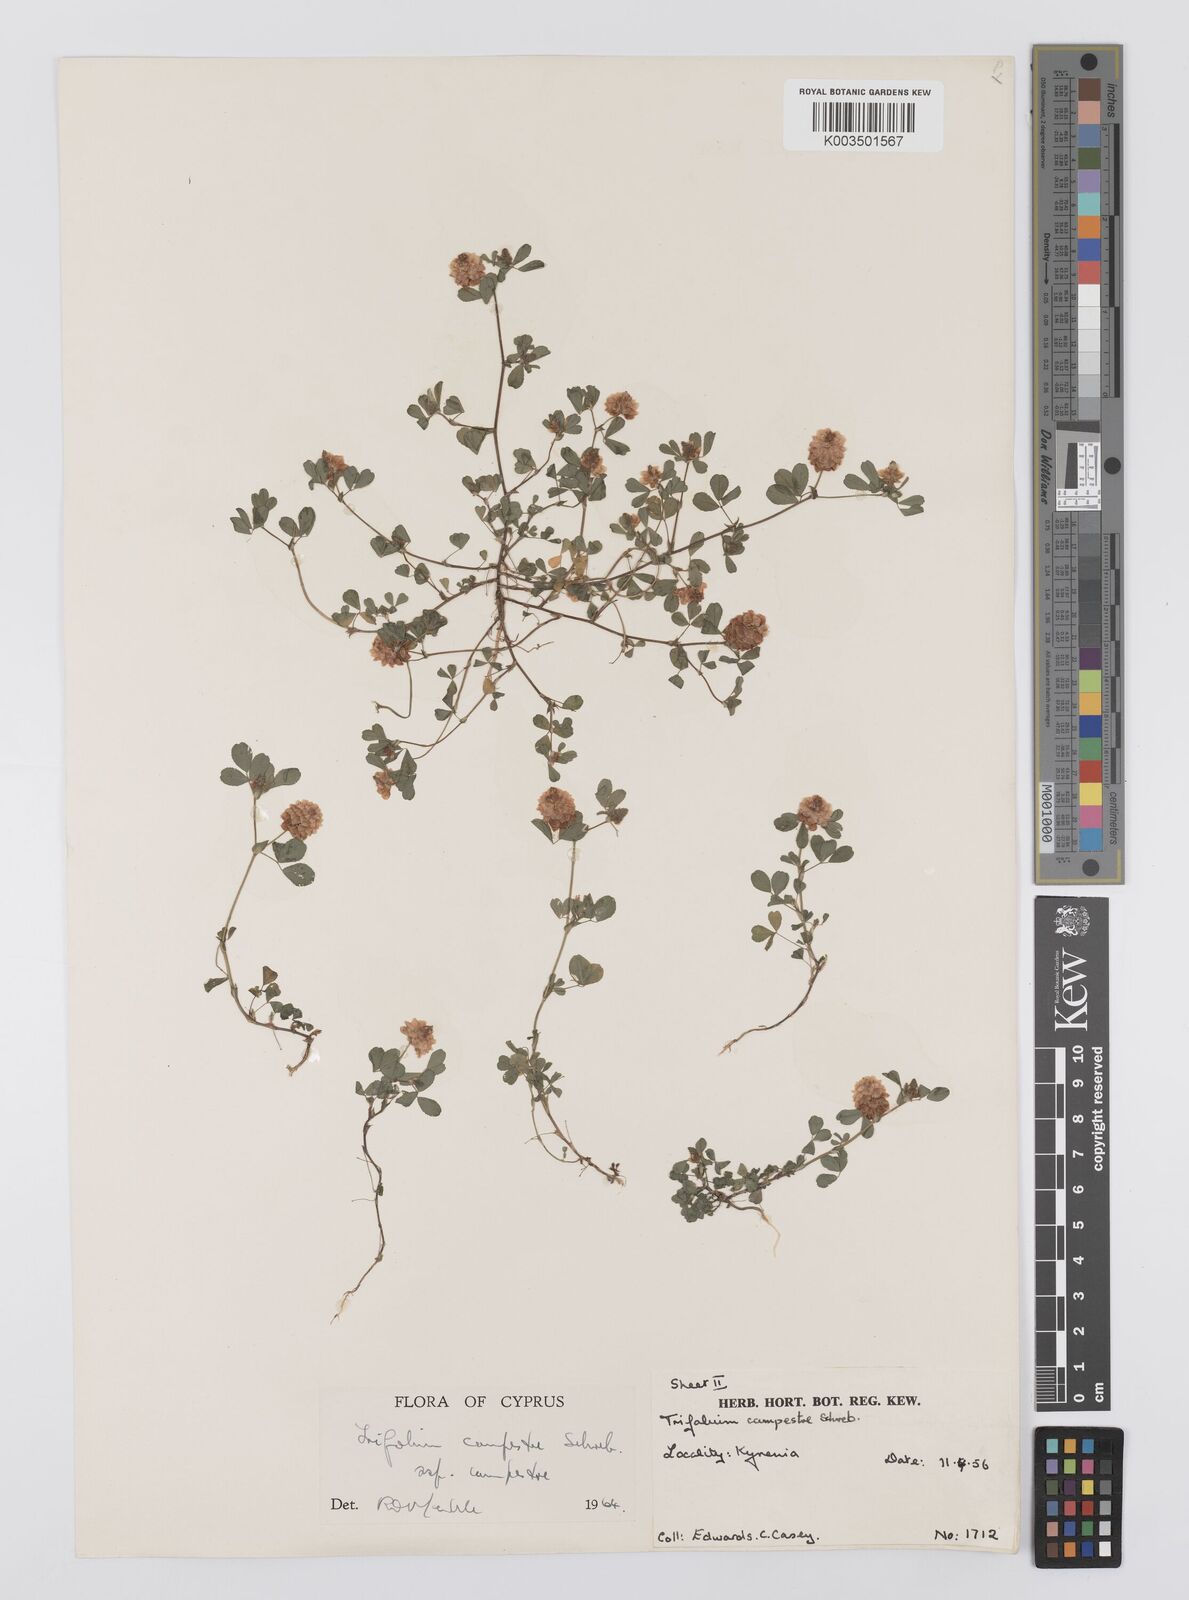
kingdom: Plantae
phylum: Tracheophyta
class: Magnoliopsida
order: Fabales
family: Fabaceae
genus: Trifolium
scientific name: Trifolium campestre
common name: Field clover
